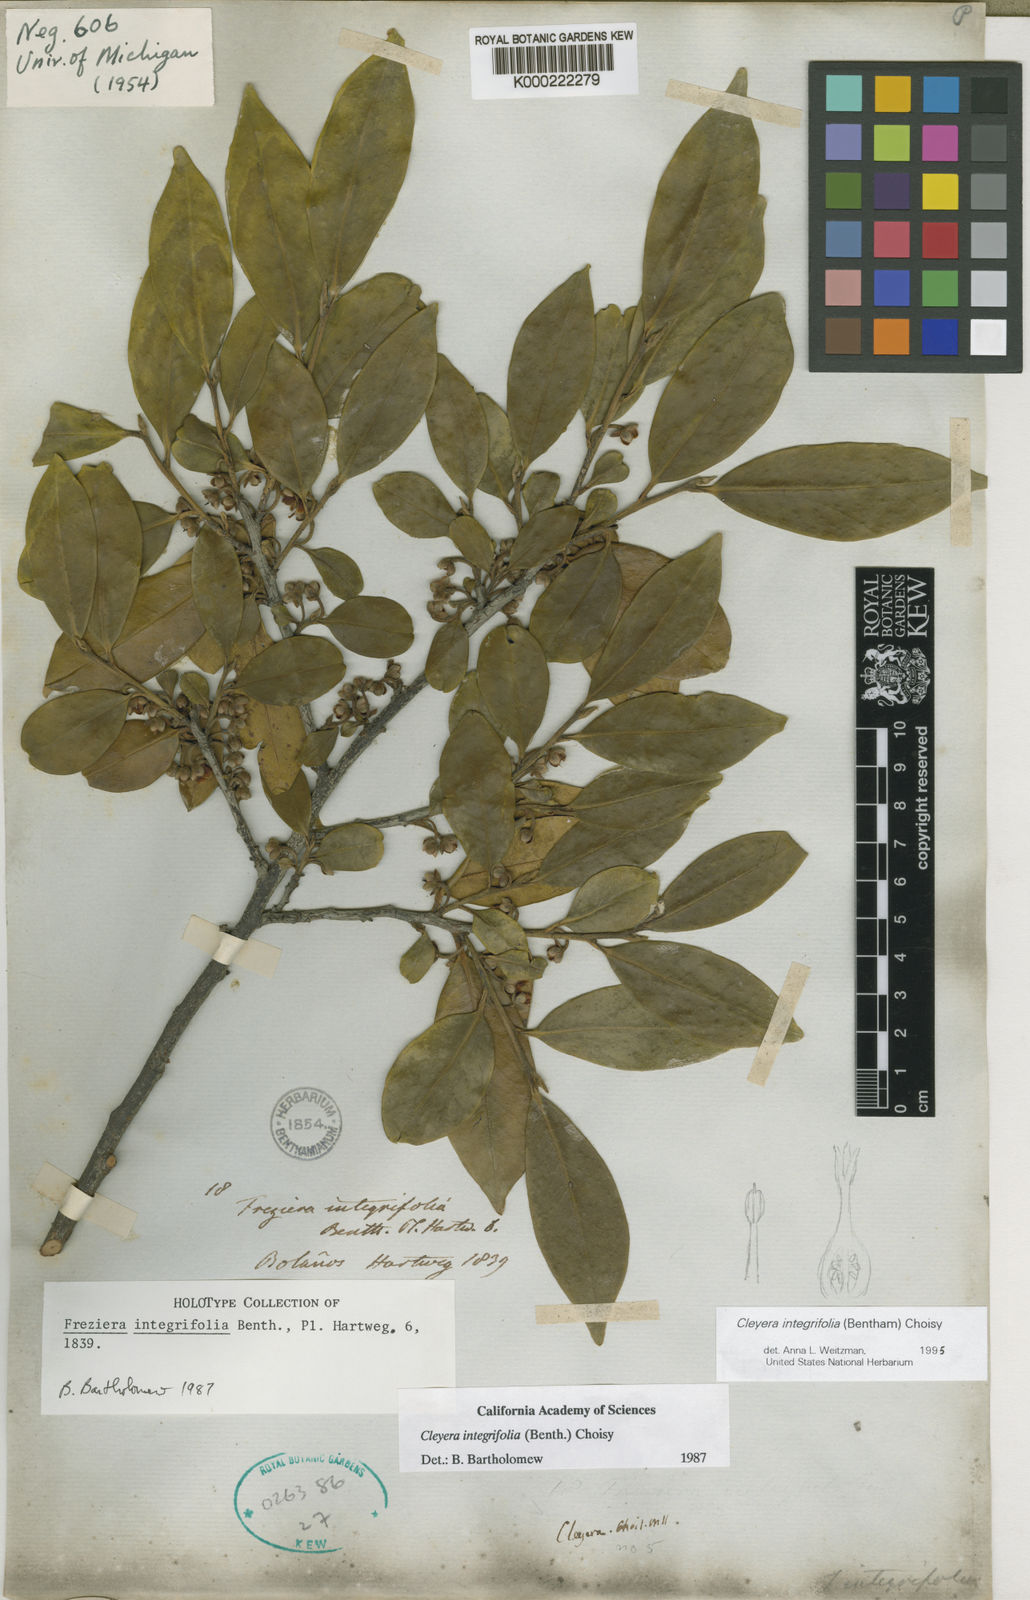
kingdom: Plantae
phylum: Tracheophyta
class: Magnoliopsida
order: Ericales
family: Pentaphylacaceae
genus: Cleyera
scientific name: Cleyera integrifolia
